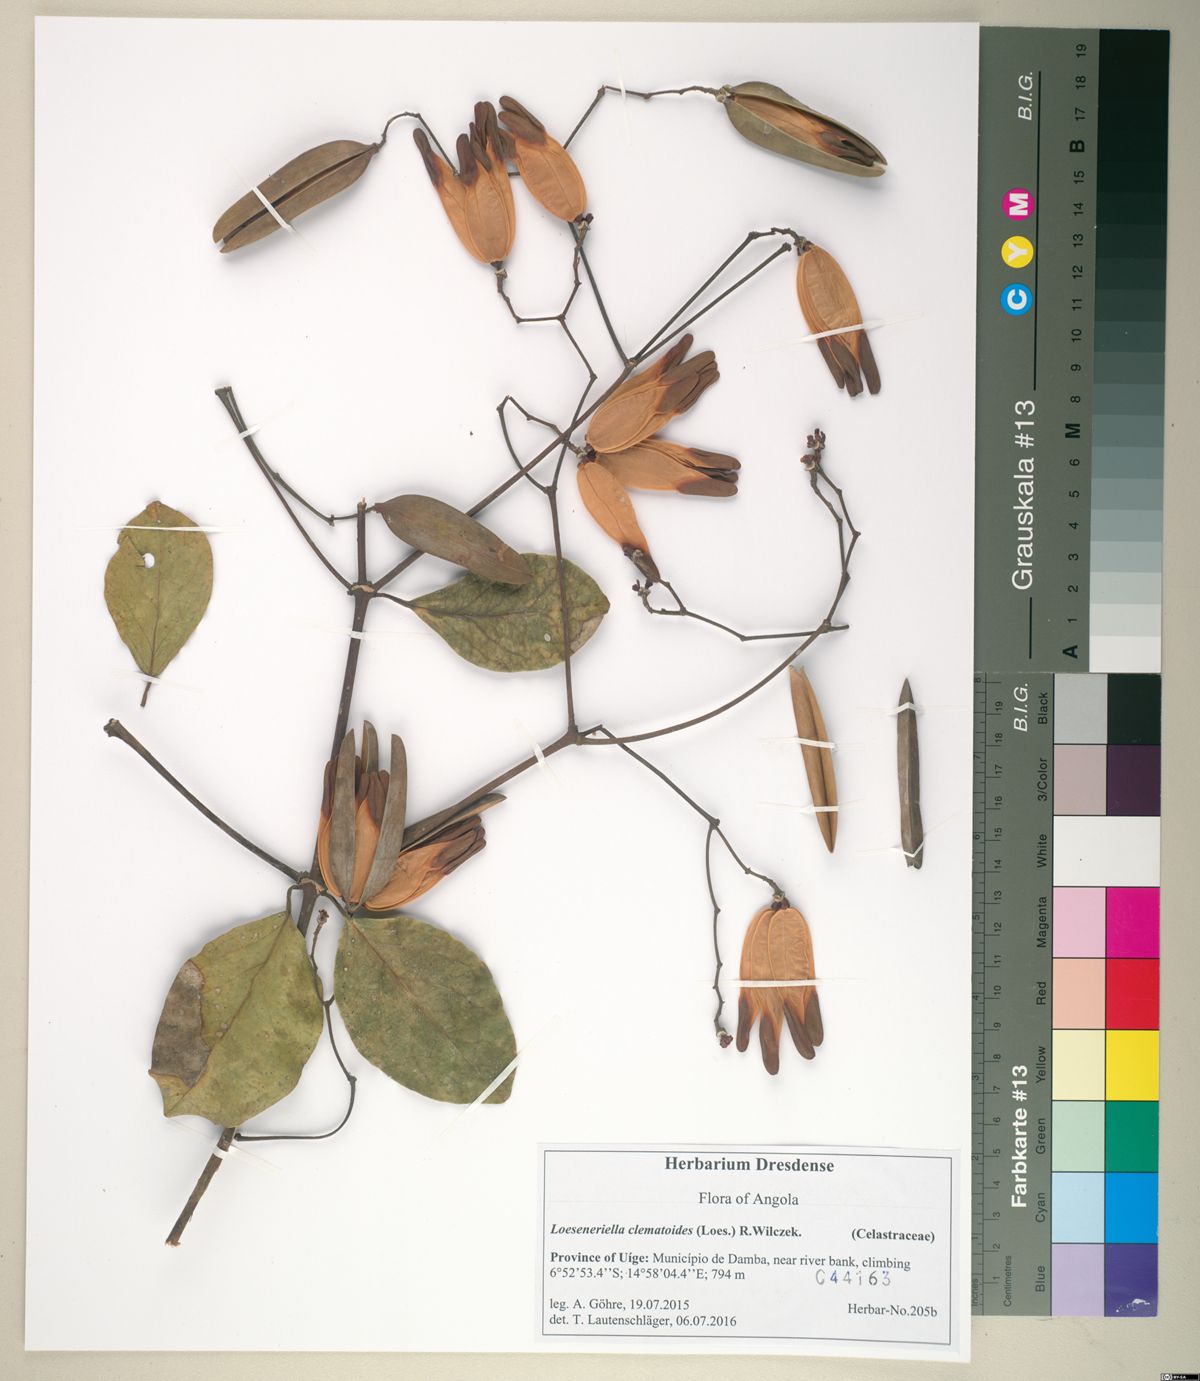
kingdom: Plantae
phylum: Tracheophyta
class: Magnoliopsida
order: Celastrales
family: Celastraceae
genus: Loeseneriella
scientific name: Loeseneriella clematoides
